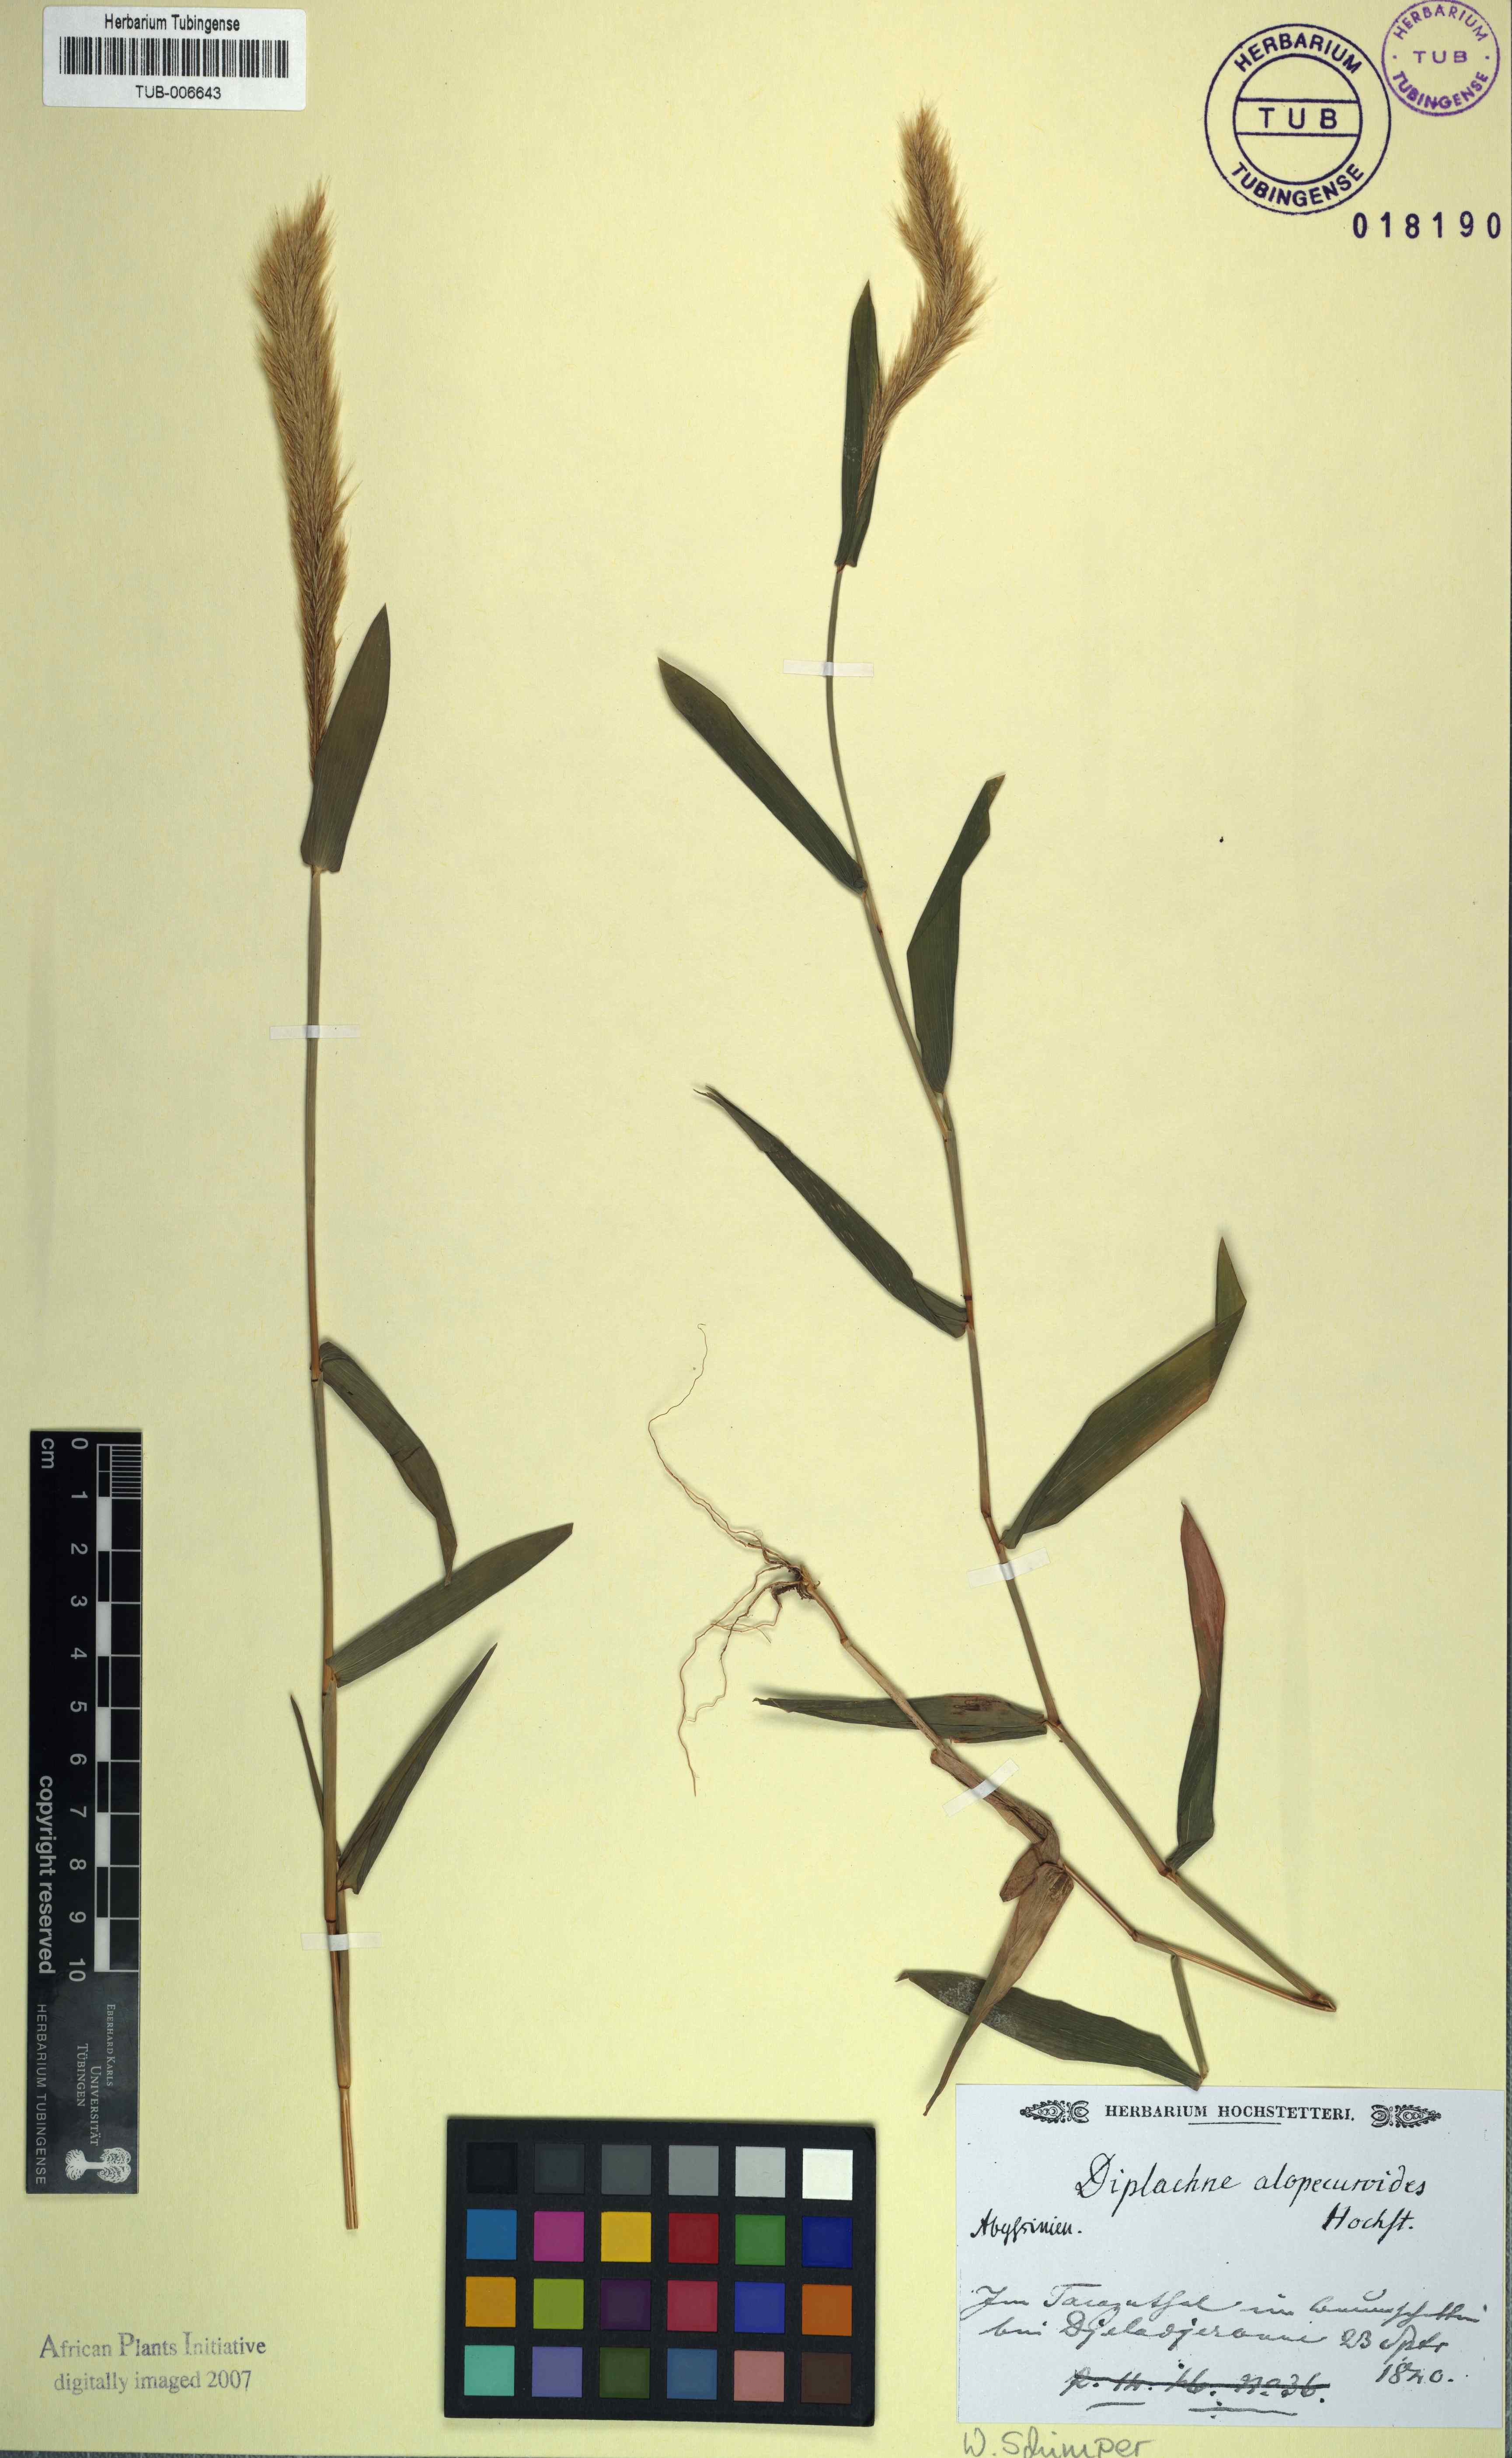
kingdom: Plantae
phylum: Tracheophyta
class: Liliopsida
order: Poales
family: Poaceae
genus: Leptocarydion
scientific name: Leptocarydion vulpiastrum
